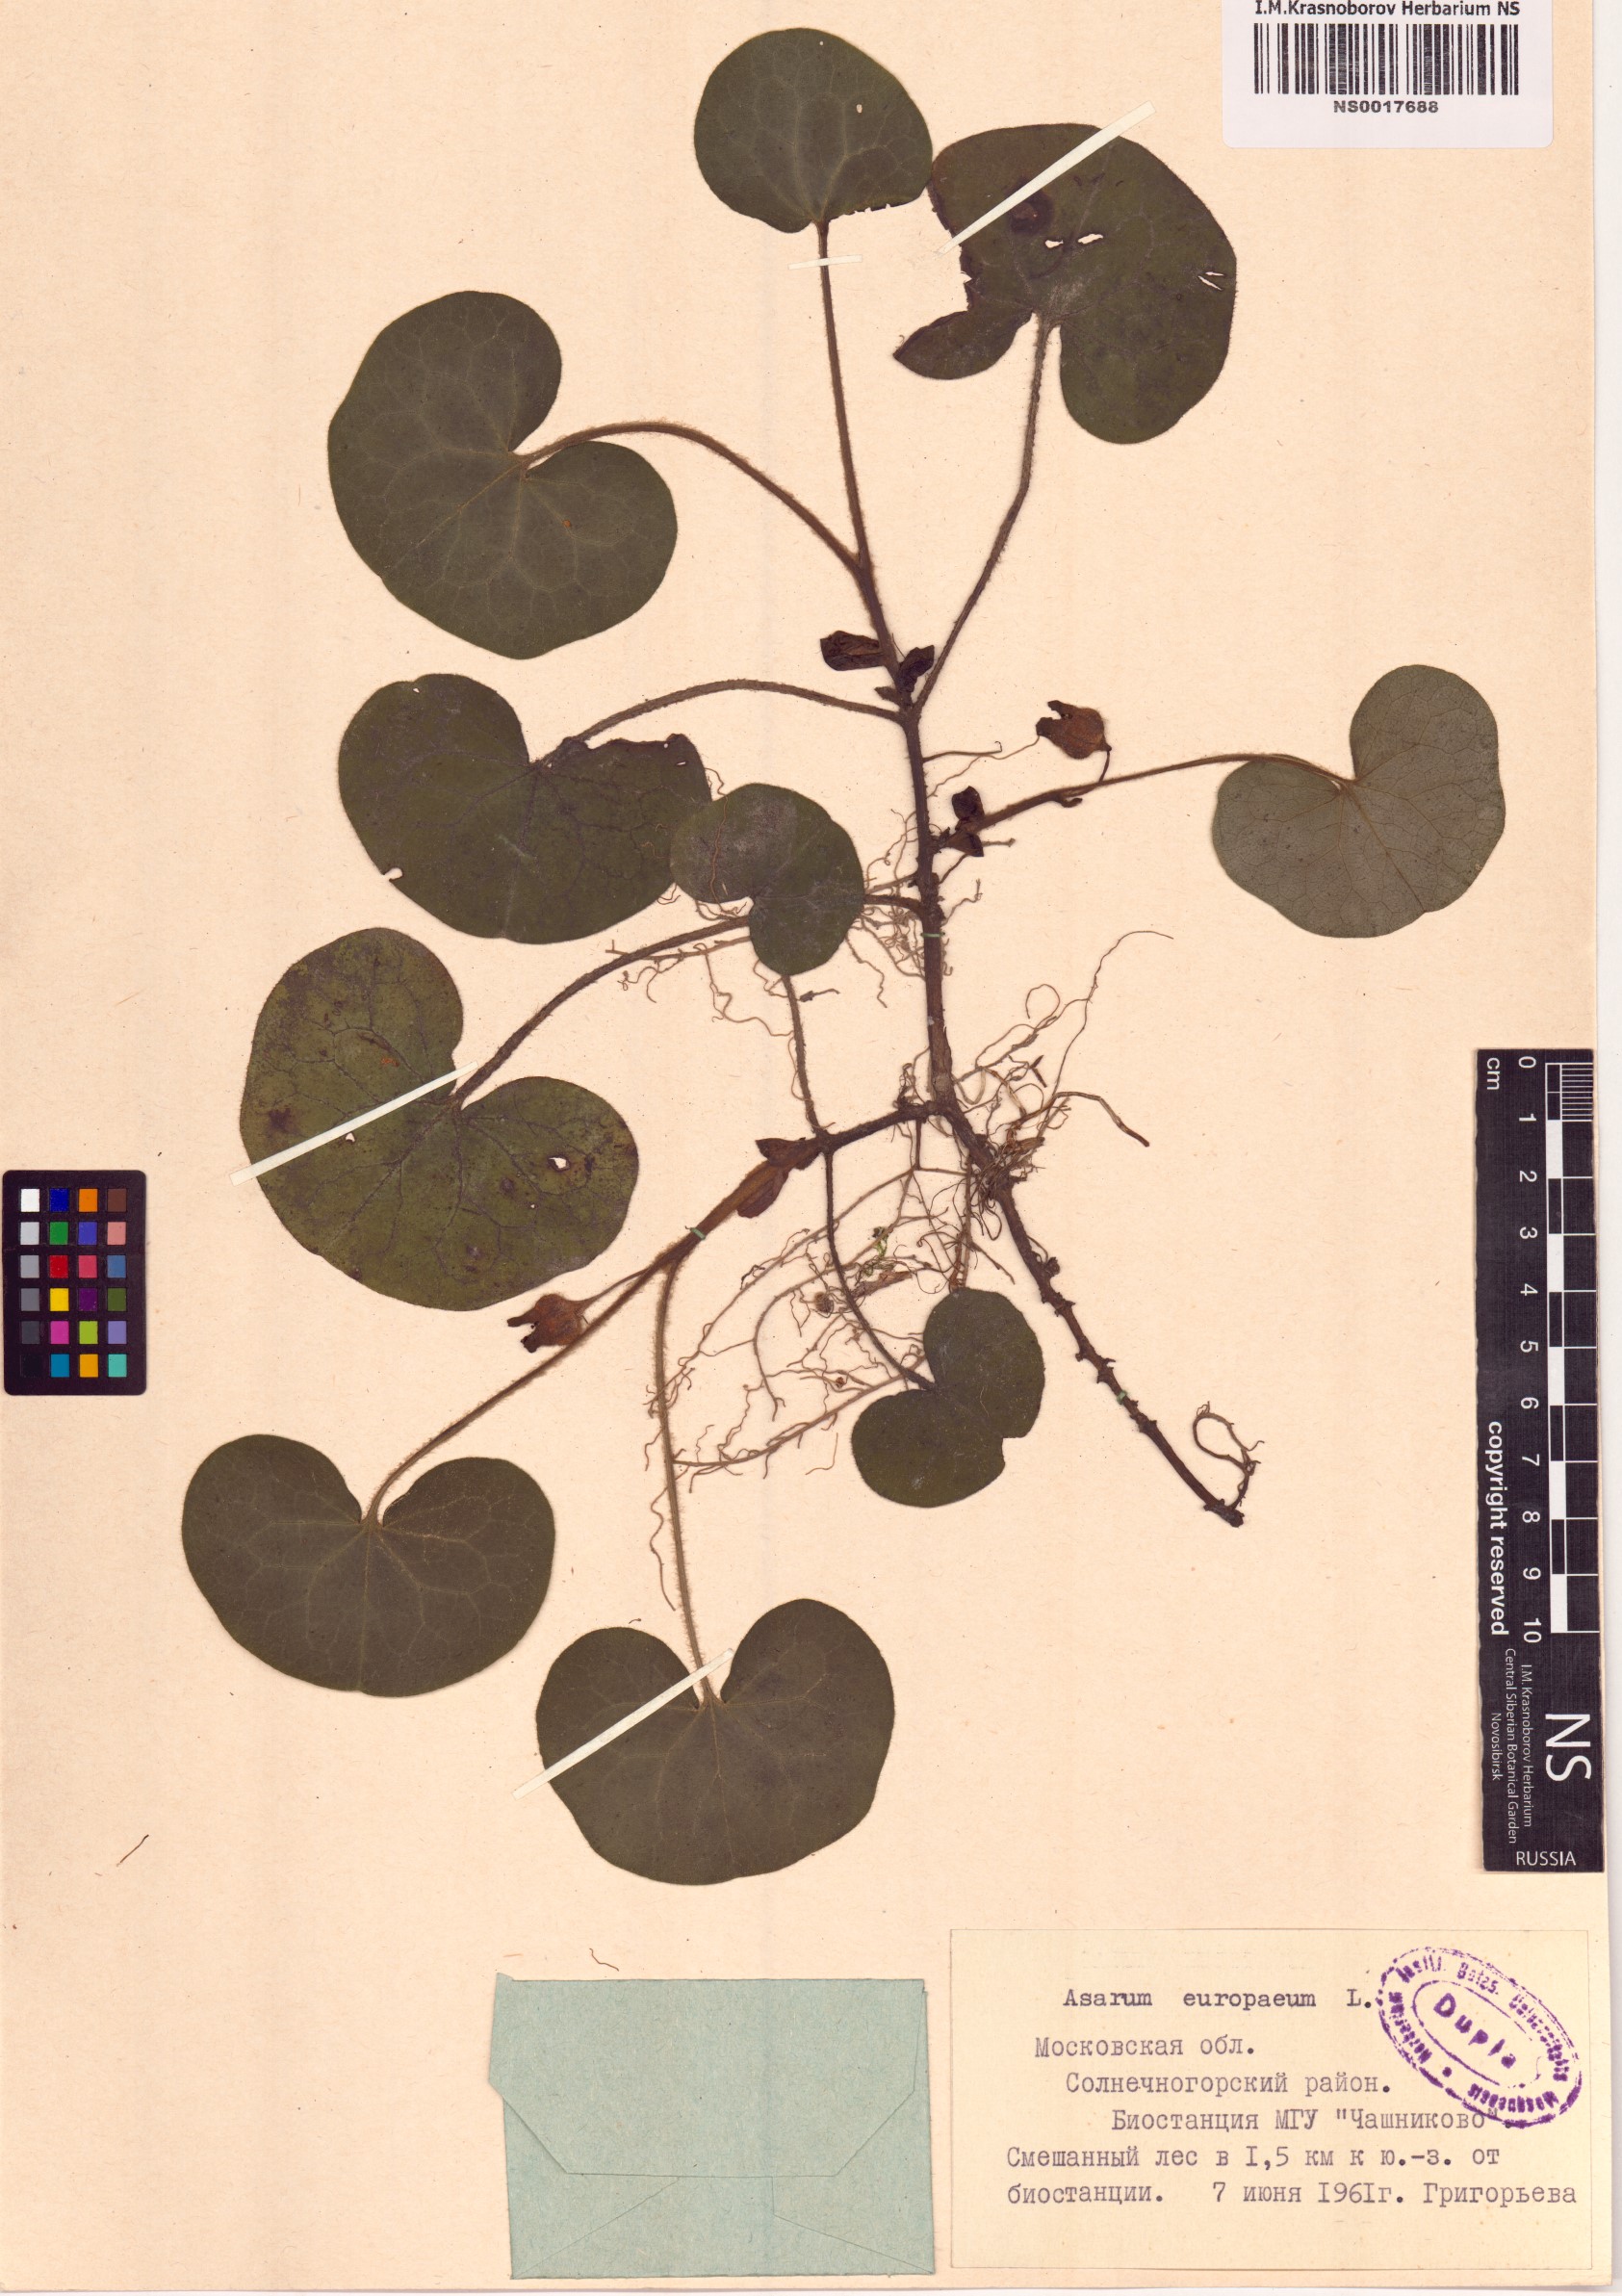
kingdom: Plantae
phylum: Tracheophyta
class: Magnoliopsida
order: Piperales
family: Aristolochiaceae
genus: Asarum
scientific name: Asarum europaeum
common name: Asarabacca
